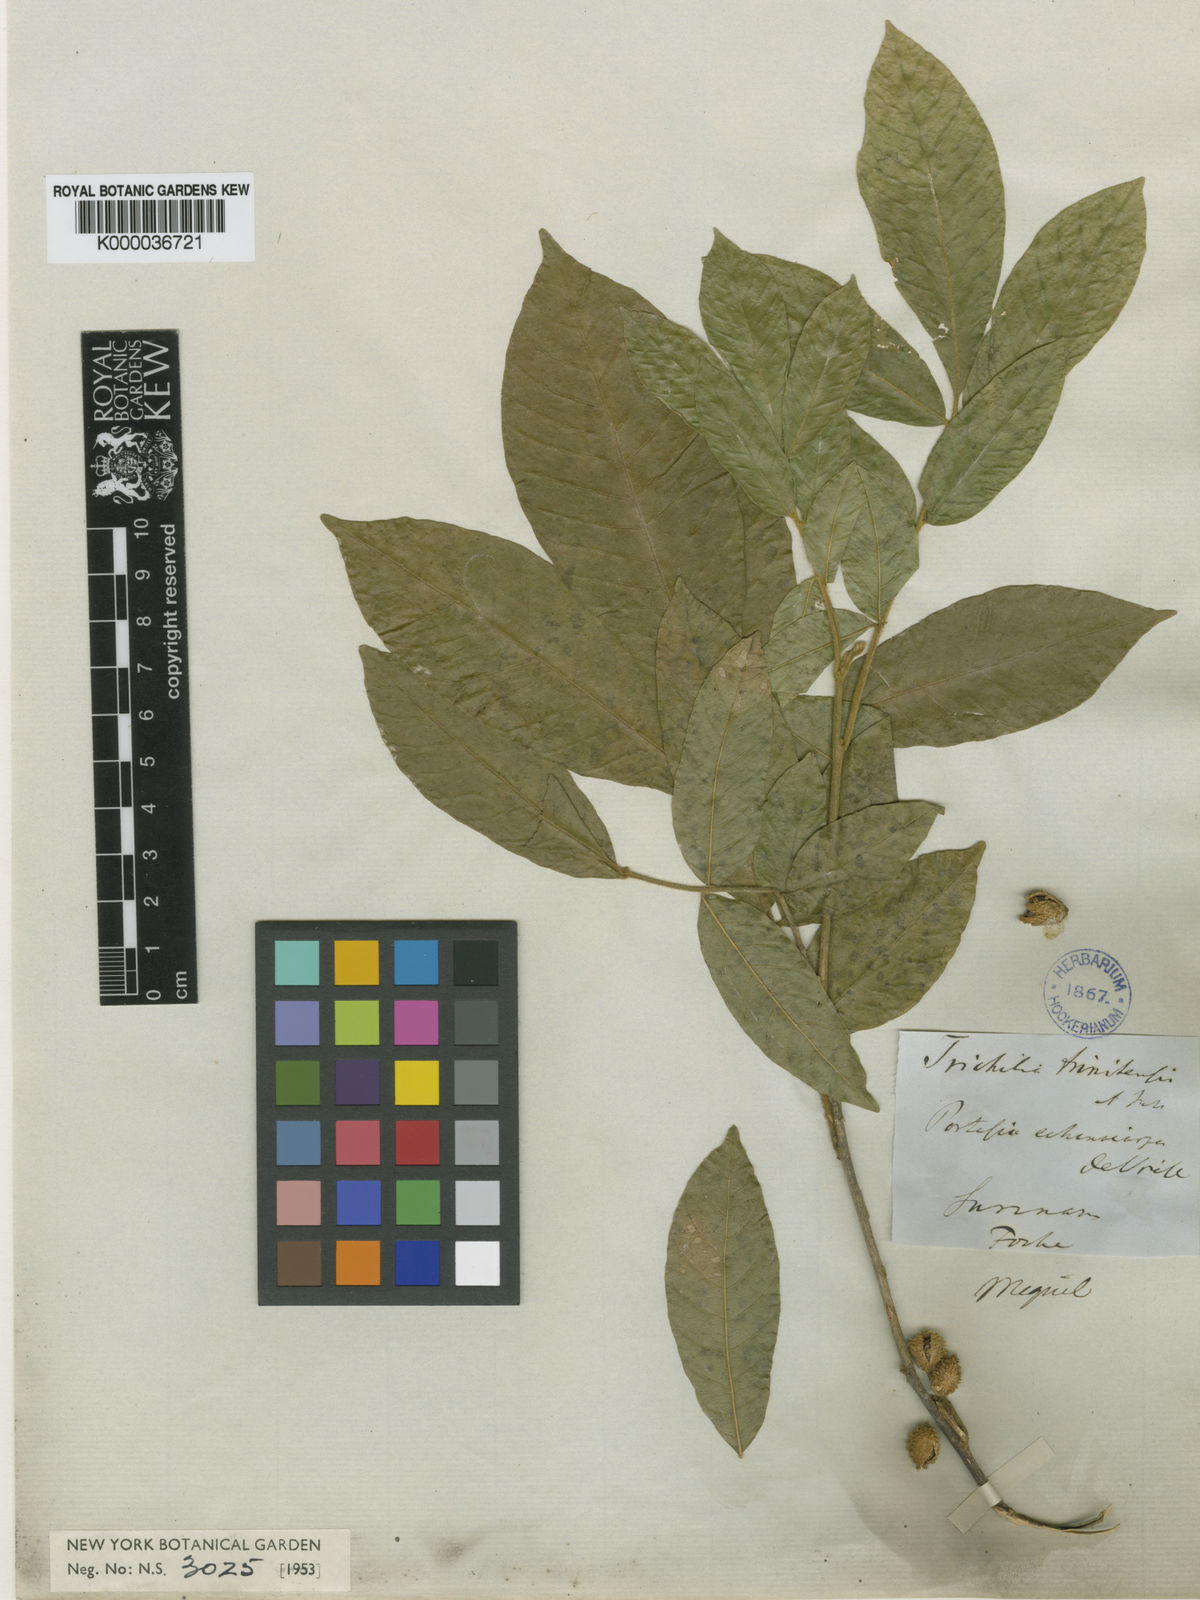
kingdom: Plantae
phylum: Tracheophyta
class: Magnoliopsida
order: Sapindales
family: Meliaceae
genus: Trichilia
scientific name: Trichilia pallida
